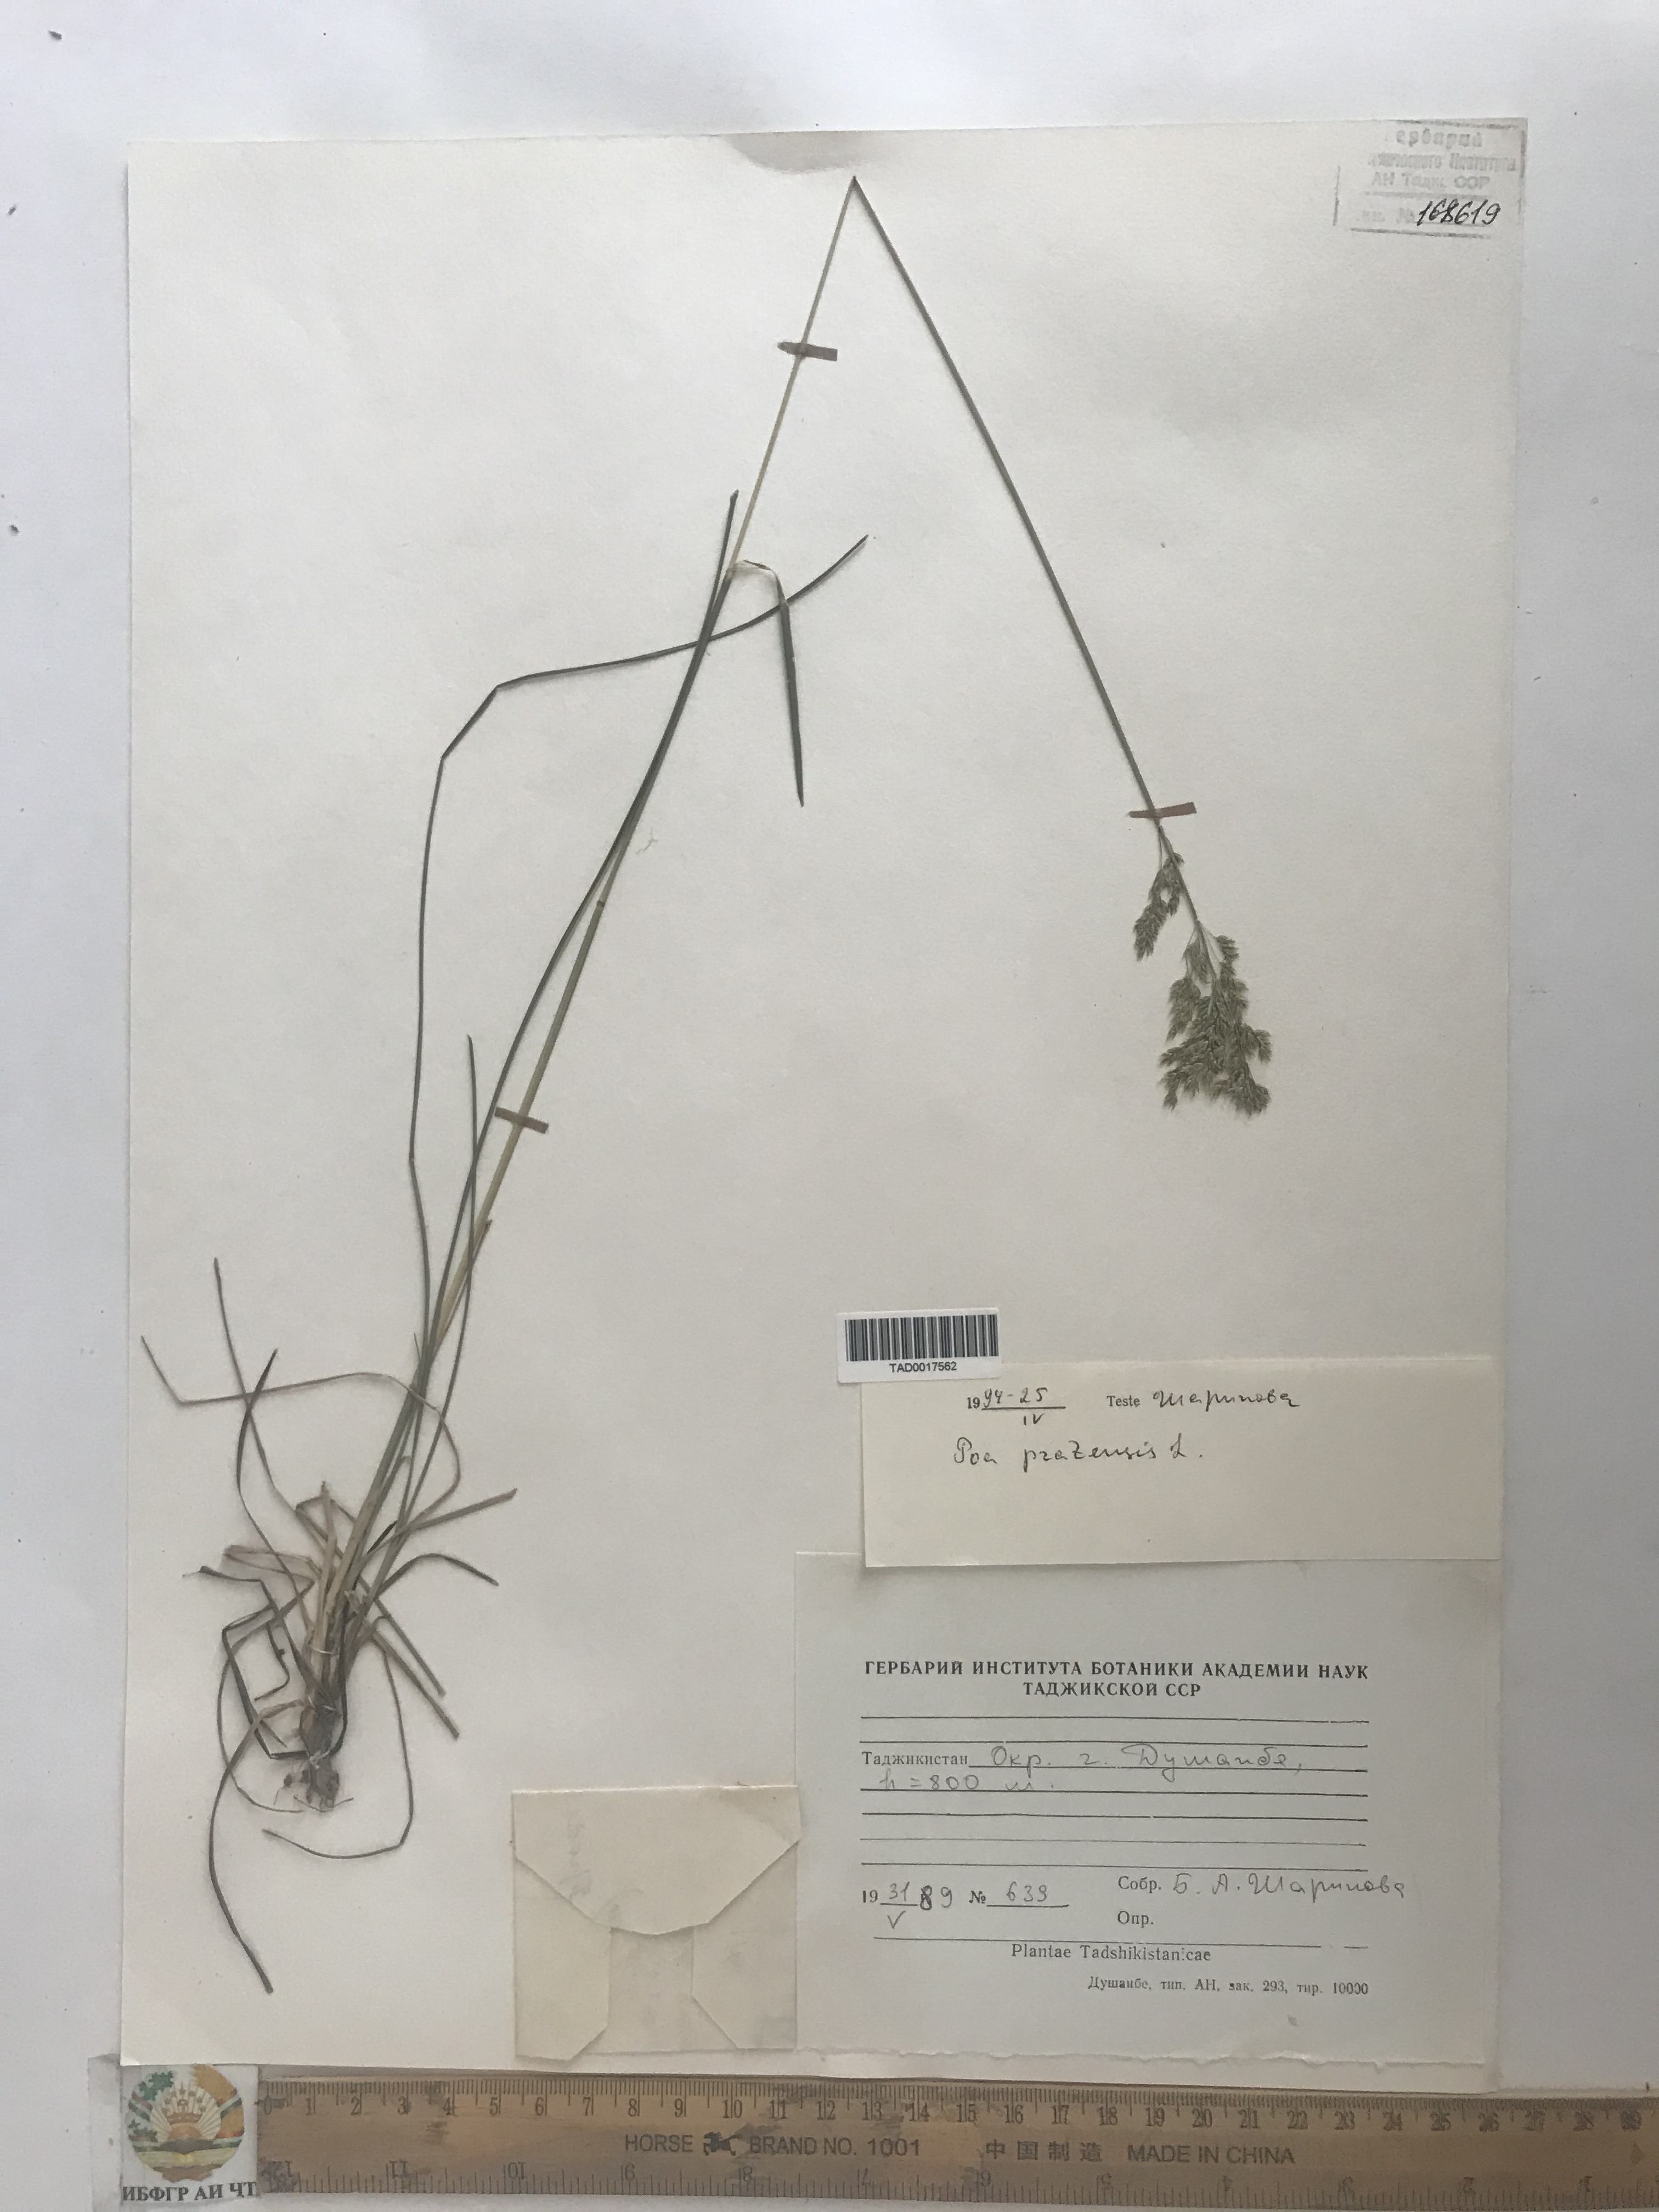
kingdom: Plantae
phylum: Tracheophyta
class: Liliopsida
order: Poales
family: Poaceae
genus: Poa
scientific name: Poa pratensis
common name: Kentucky bluegrass
